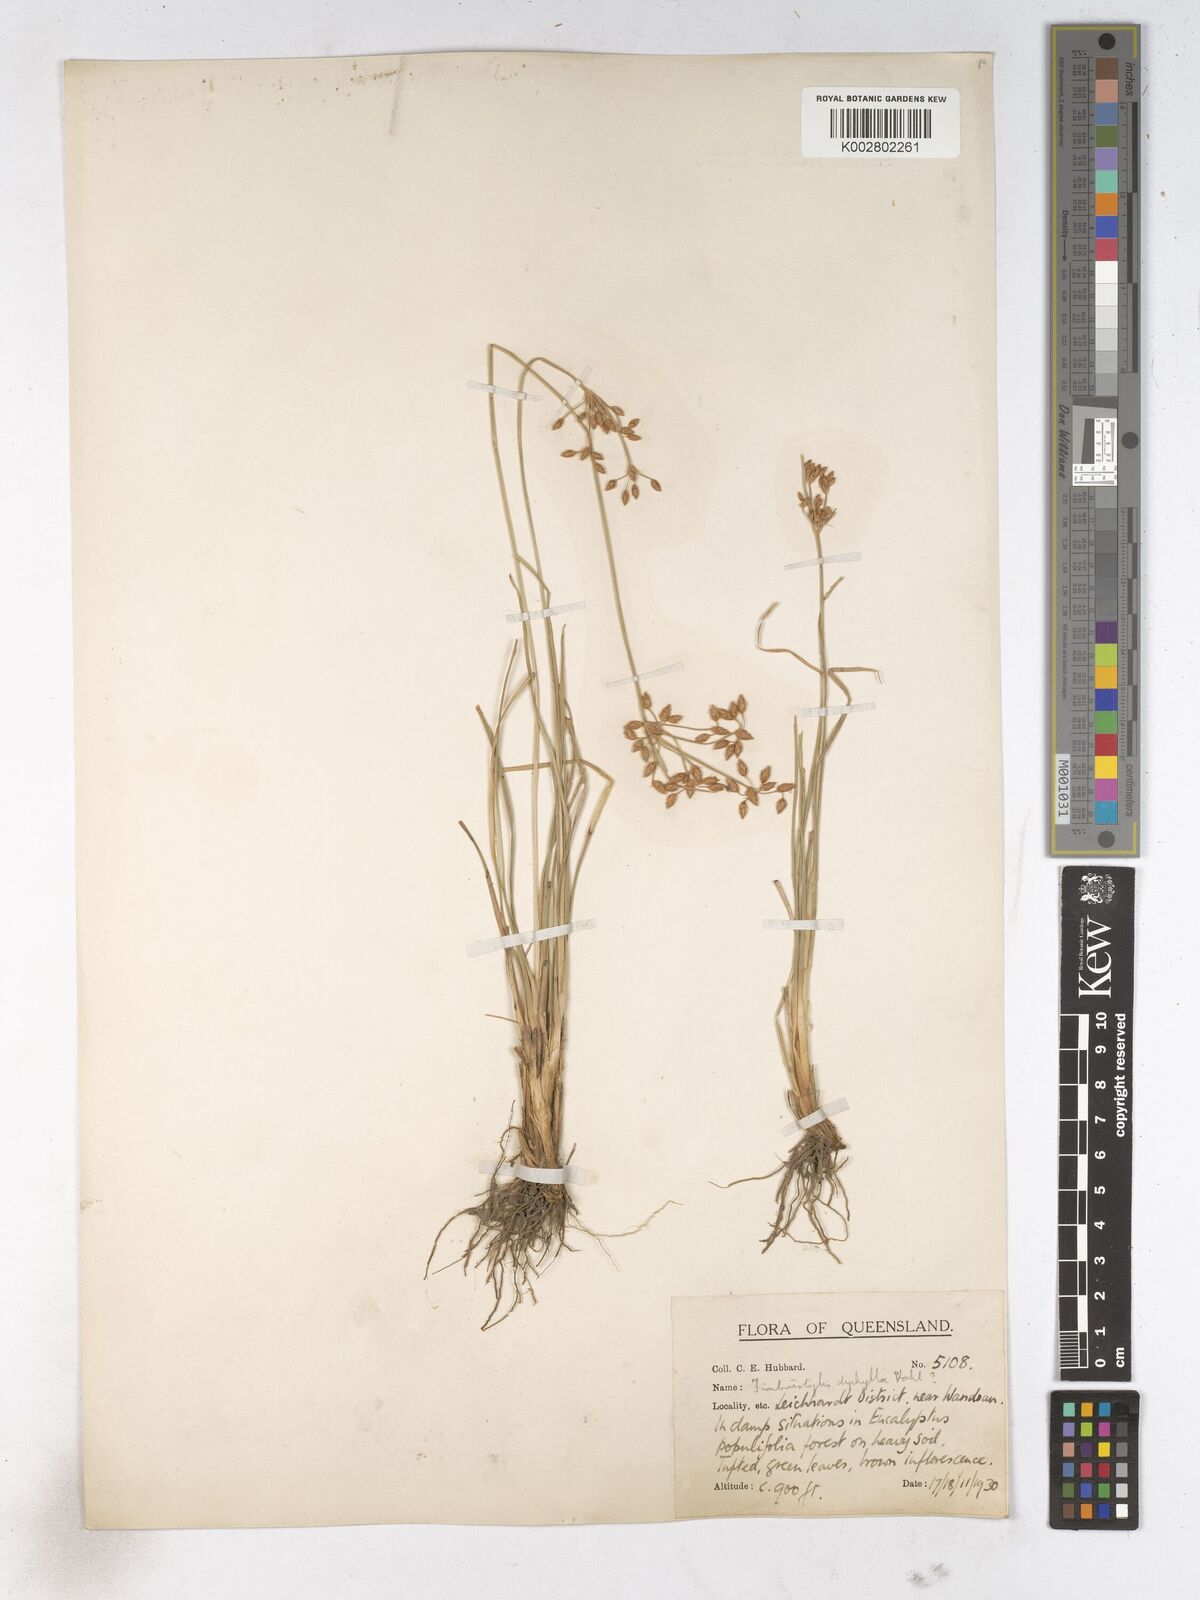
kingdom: Plantae
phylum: Tracheophyta
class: Liliopsida
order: Poales
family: Cyperaceae
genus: Fimbristylis
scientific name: Fimbristylis dichotoma
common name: Forked fimbry
